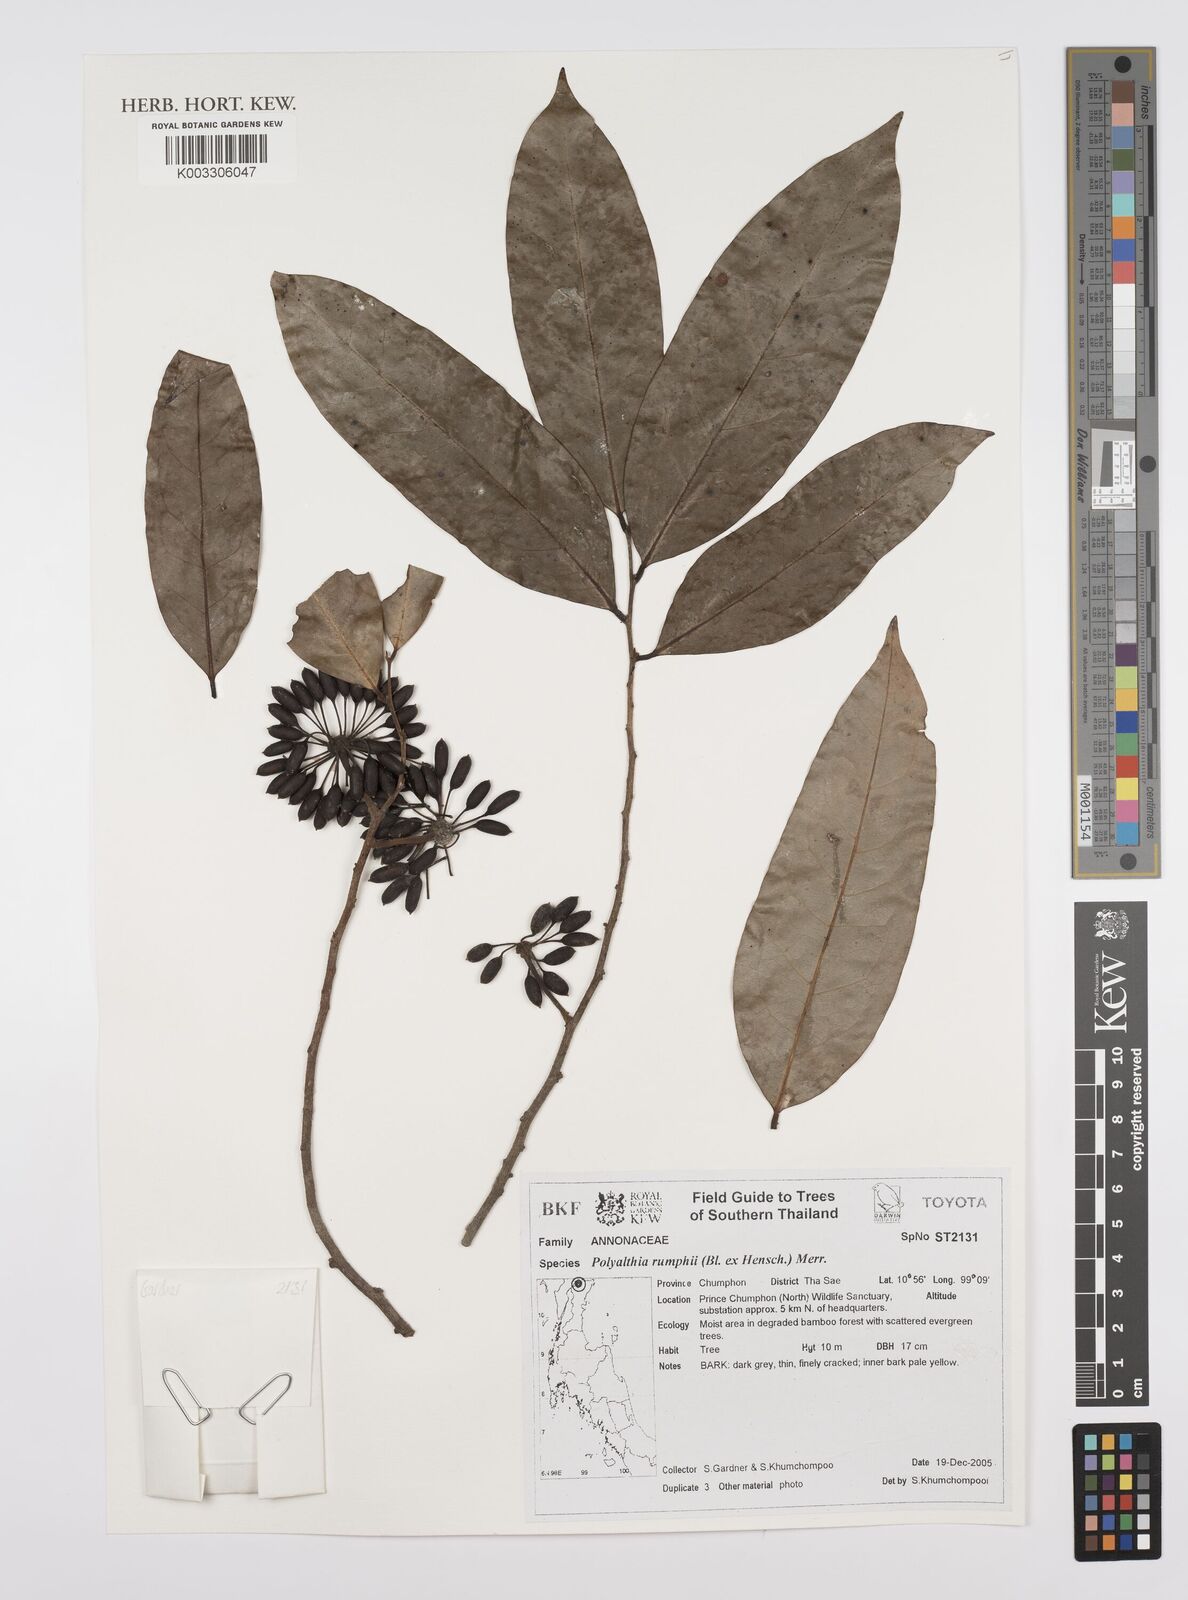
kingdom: Plantae
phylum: Tracheophyta
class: Magnoliopsida
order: Magnoliales
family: Annonaceae
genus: Huberantha
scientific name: Huberantha
